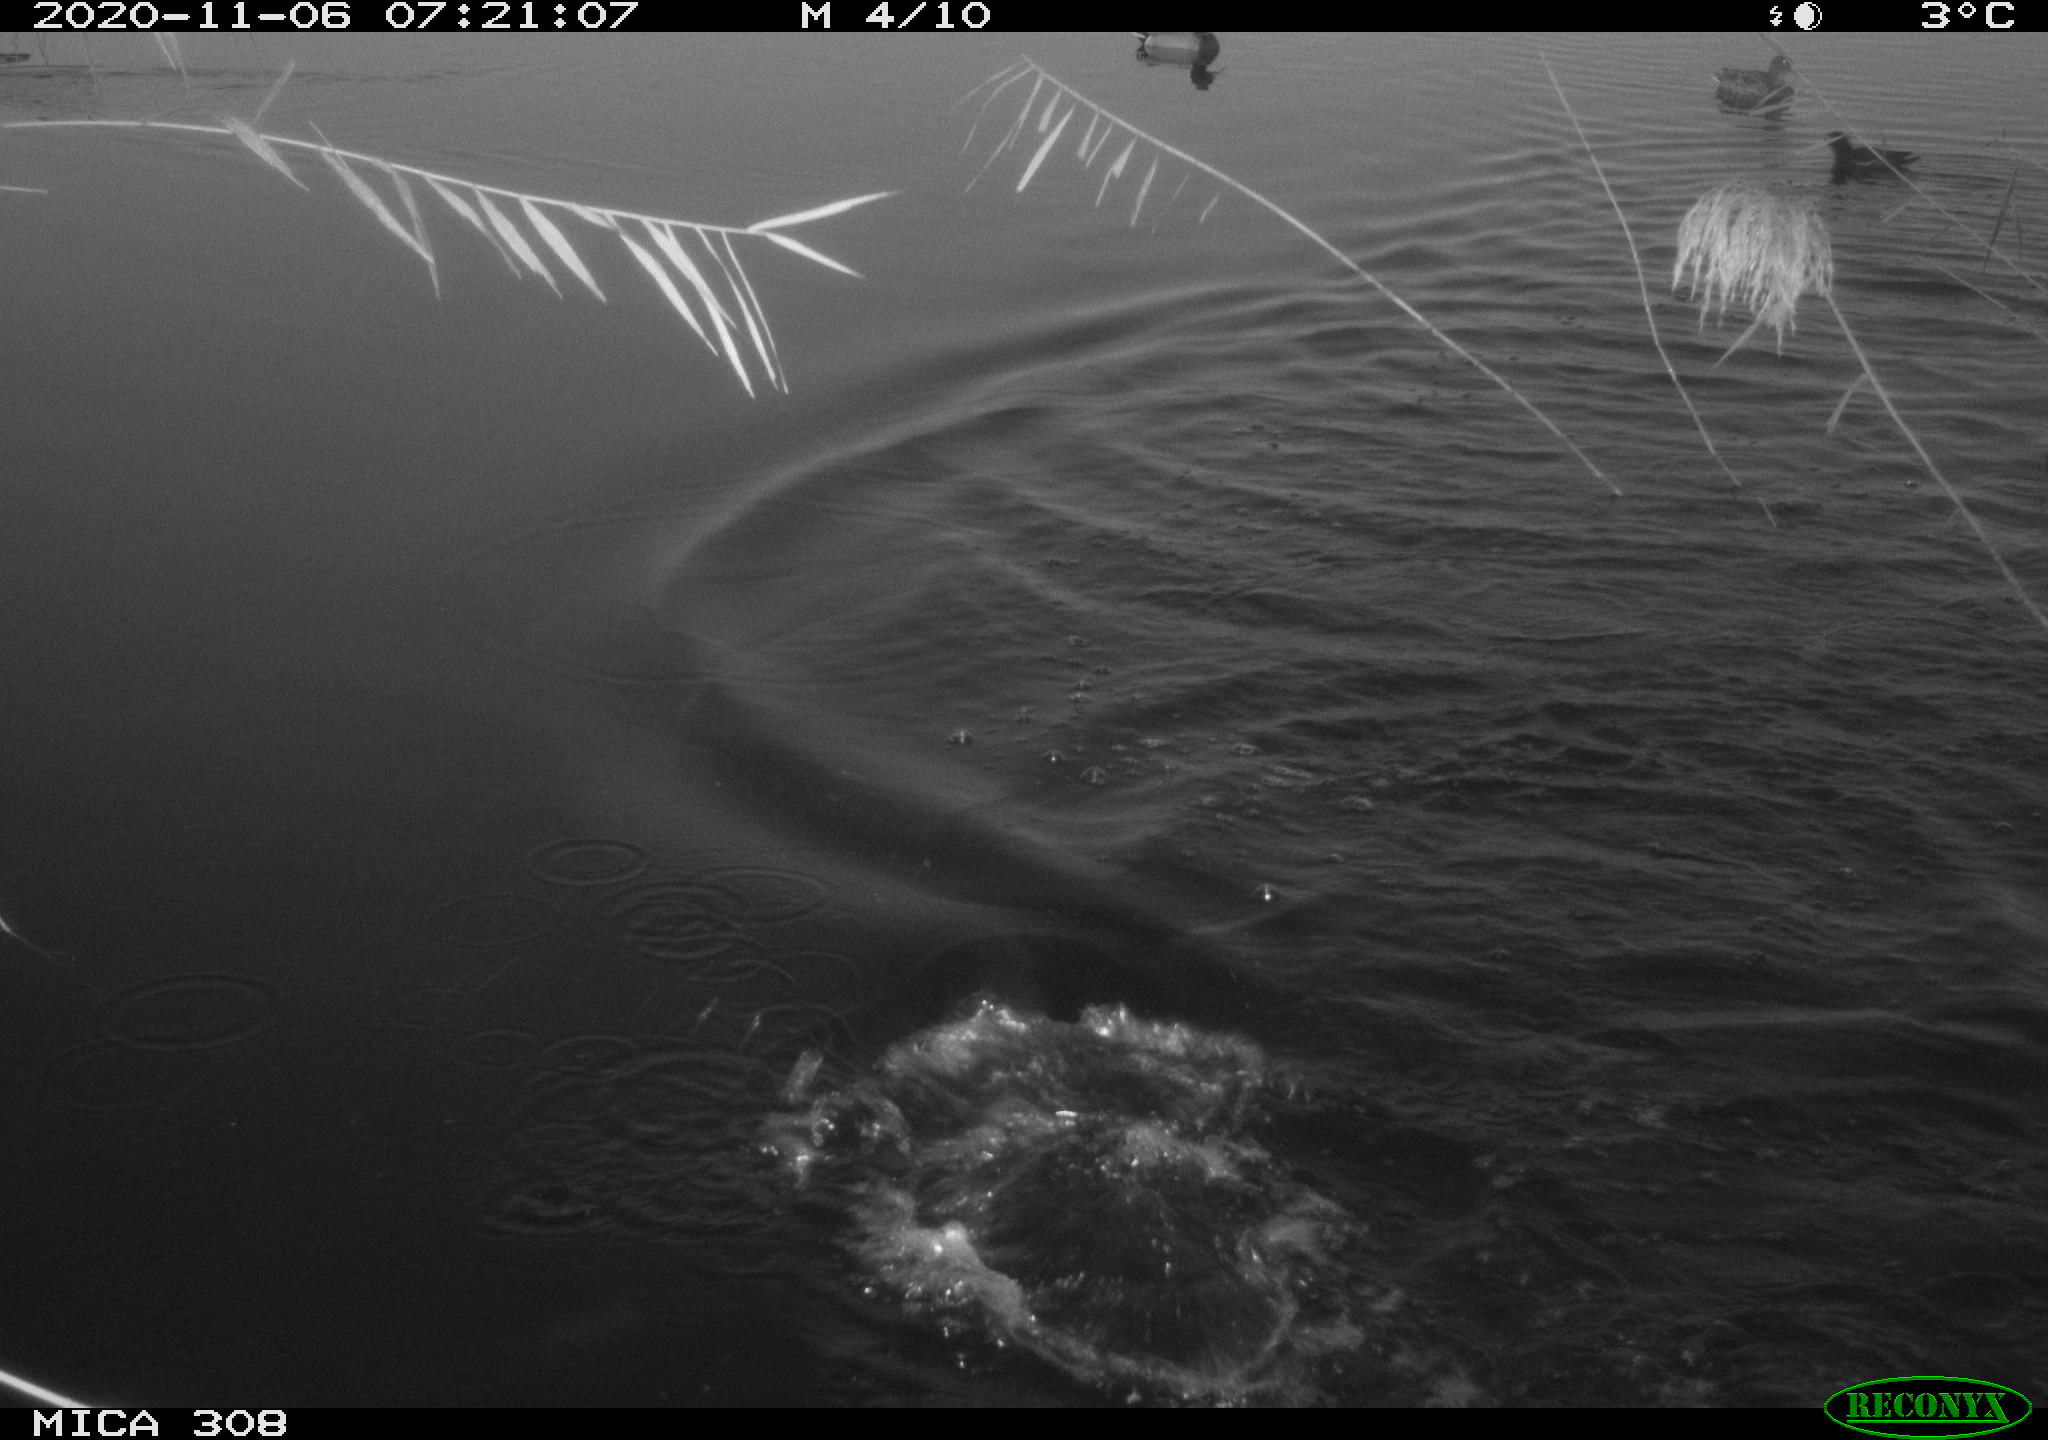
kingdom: Animalia
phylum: Chordata
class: Aves
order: Anseriformes
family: Anatidae
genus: Anas
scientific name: Anas
